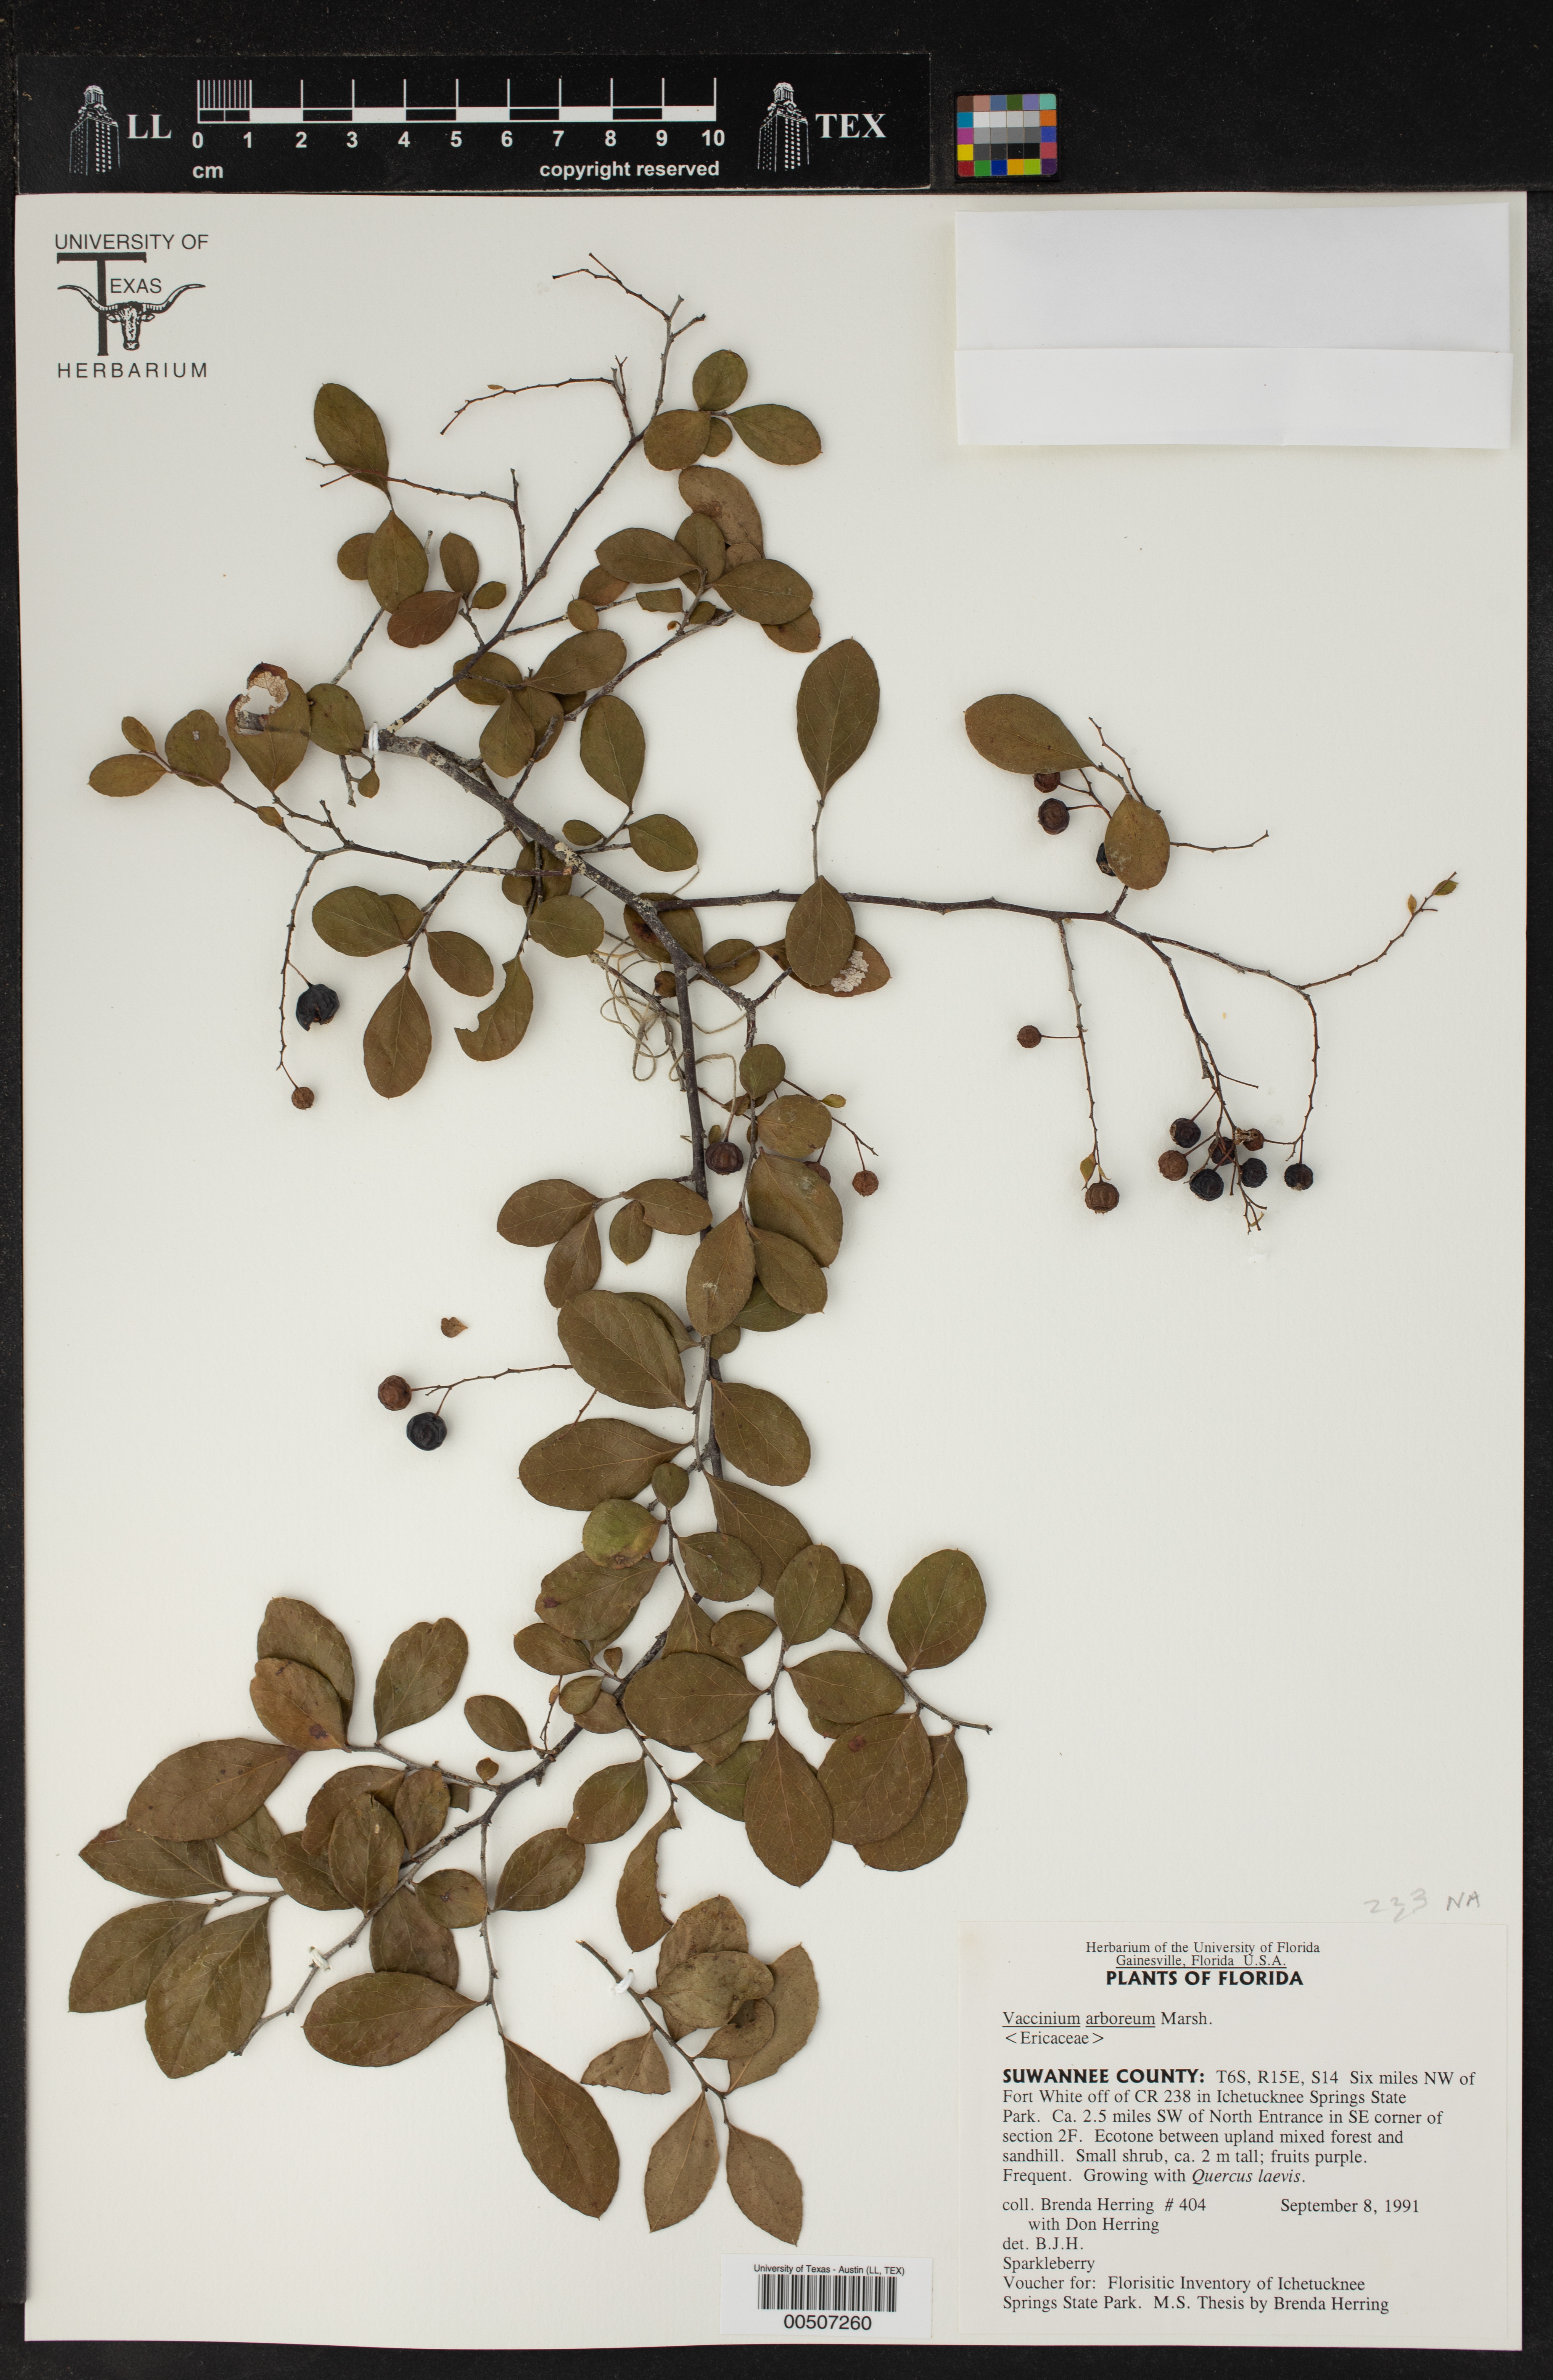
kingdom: Plantae
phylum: Tracheophyta
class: Magnoliopsida
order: Ericales
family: Ericaceae
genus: Vaccinium
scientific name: Vaccinium arboreum
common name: Farkleberry
